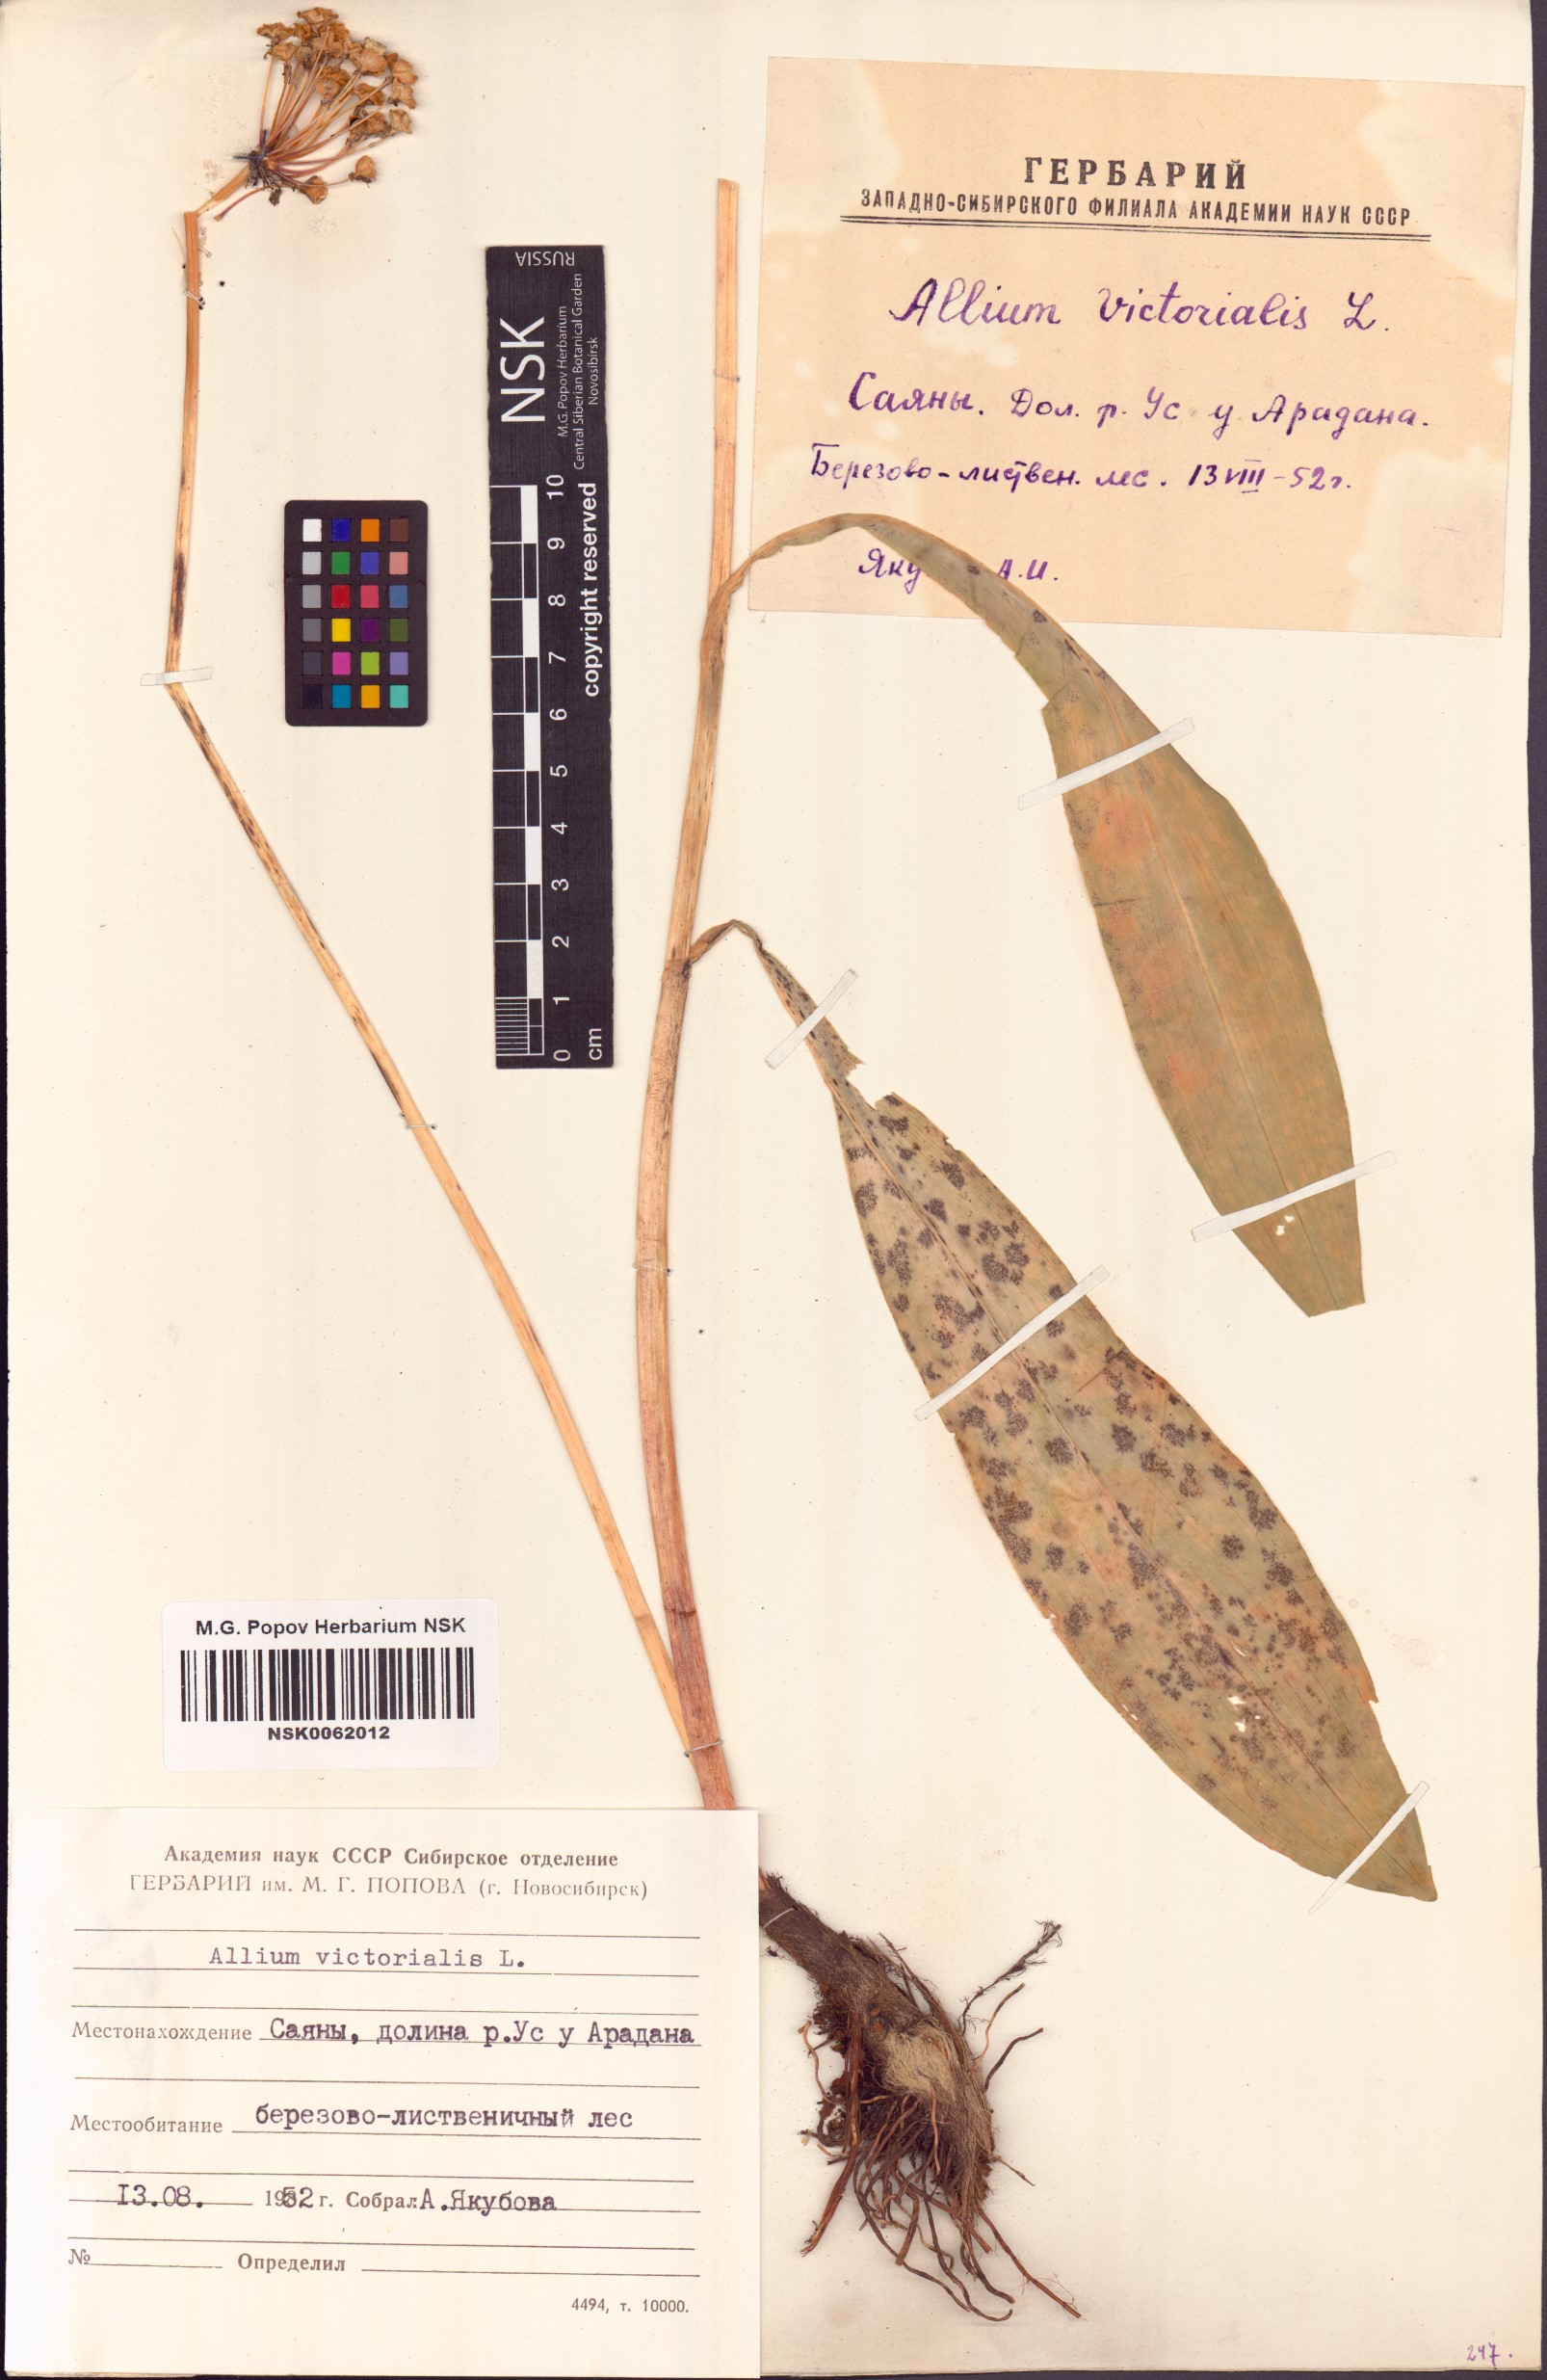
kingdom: Plantae
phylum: Tracheophyta
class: Liliopsida
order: Asparagales
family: Amaryllidaceae
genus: Allium
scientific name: Allium victorialis
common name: Alpine leek
